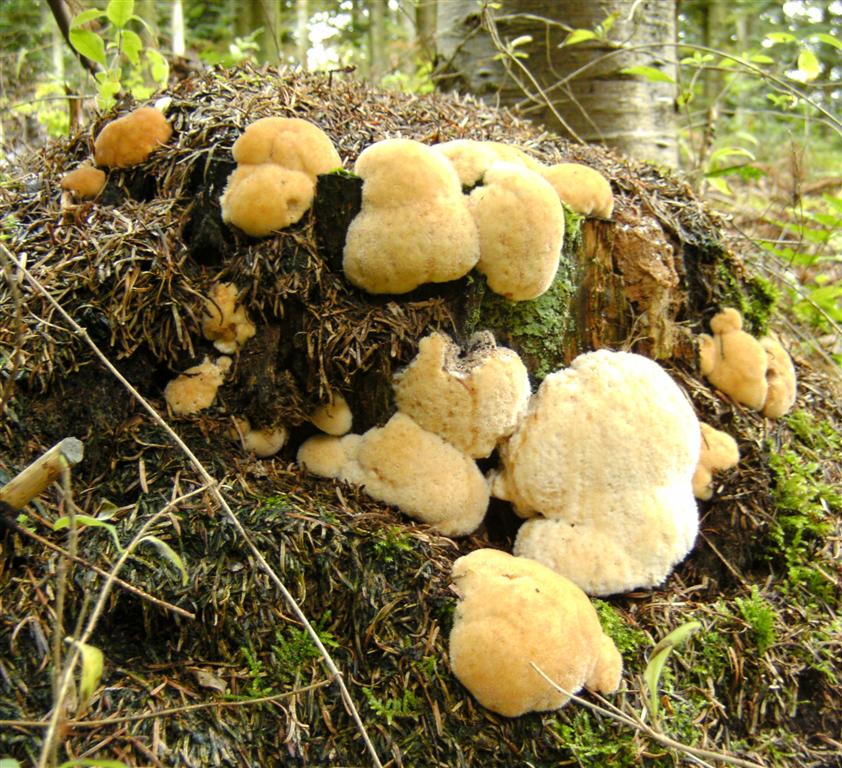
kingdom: Fungi
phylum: Basidiomycota
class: Agaricomycetes
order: Polyporales
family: Dacryobolaceae
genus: Postia
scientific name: Postia ptychogaster
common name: støvende kødporesvamp
